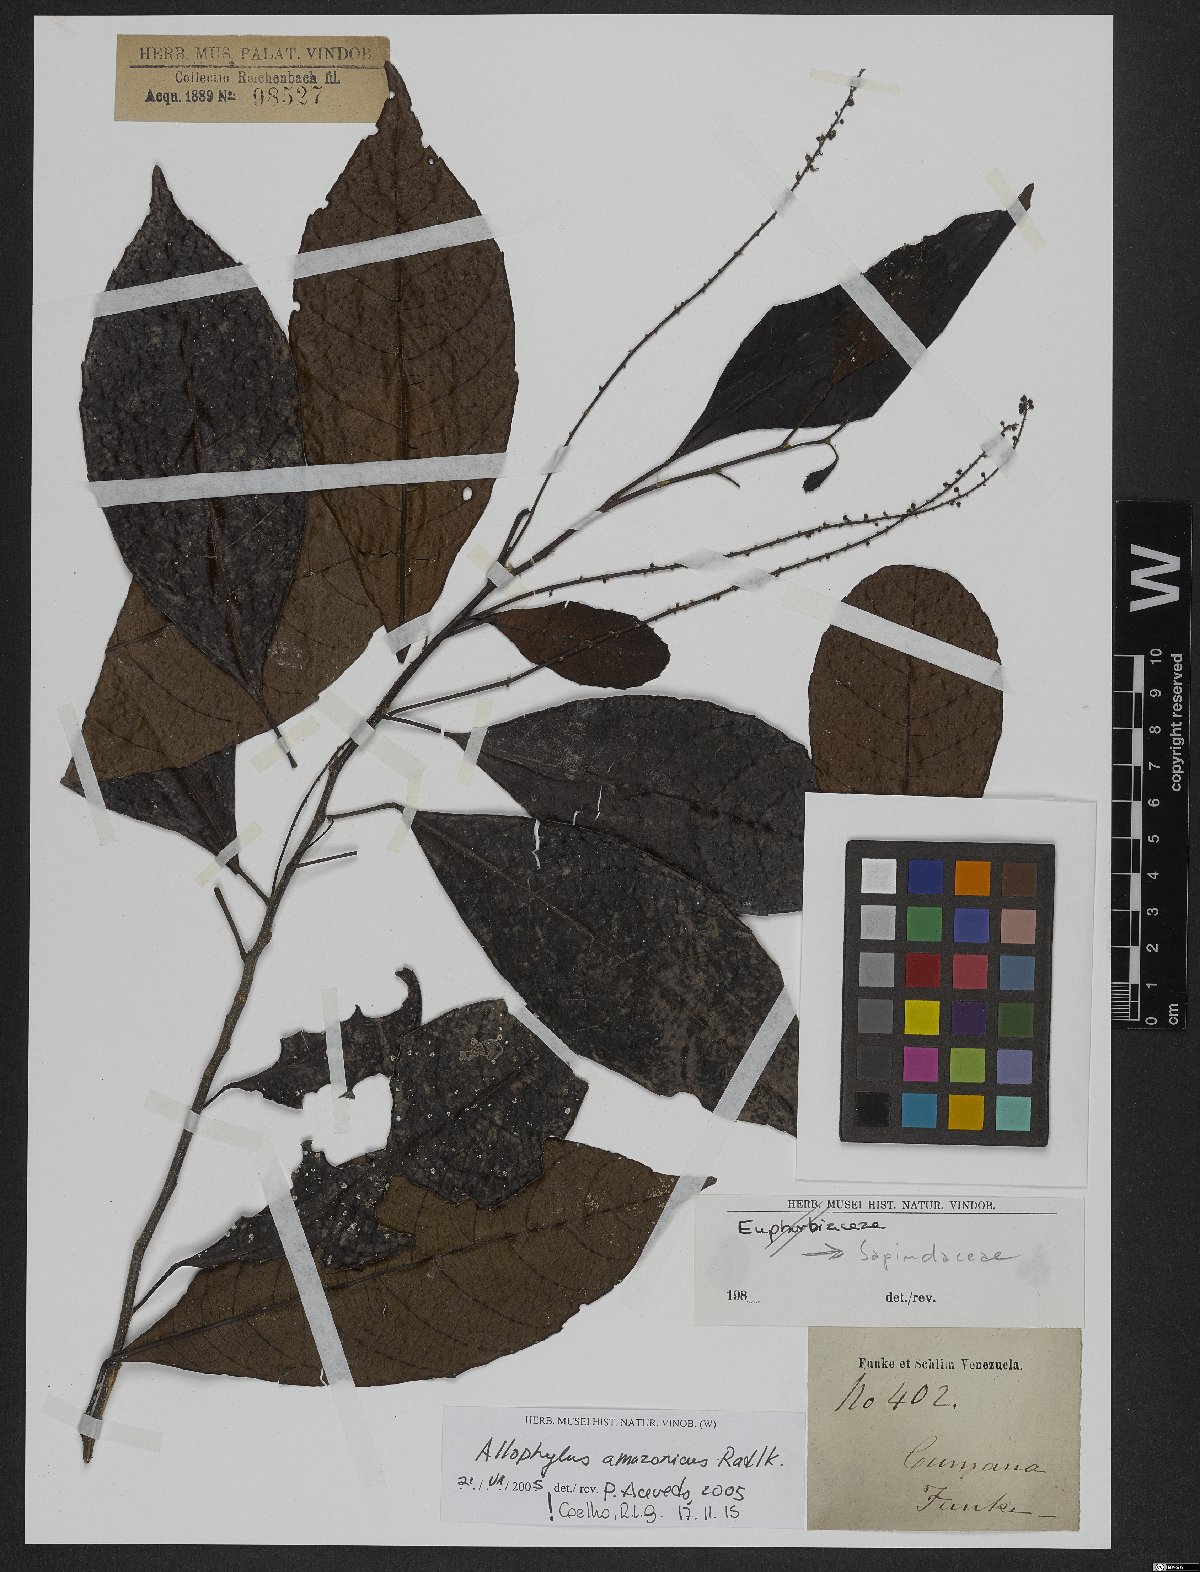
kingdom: Plantae
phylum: Tracheophyta
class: Magnoliopsida
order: Sapindales
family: Sapindaceae
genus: Allophylus
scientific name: Allophylus amazonicus
